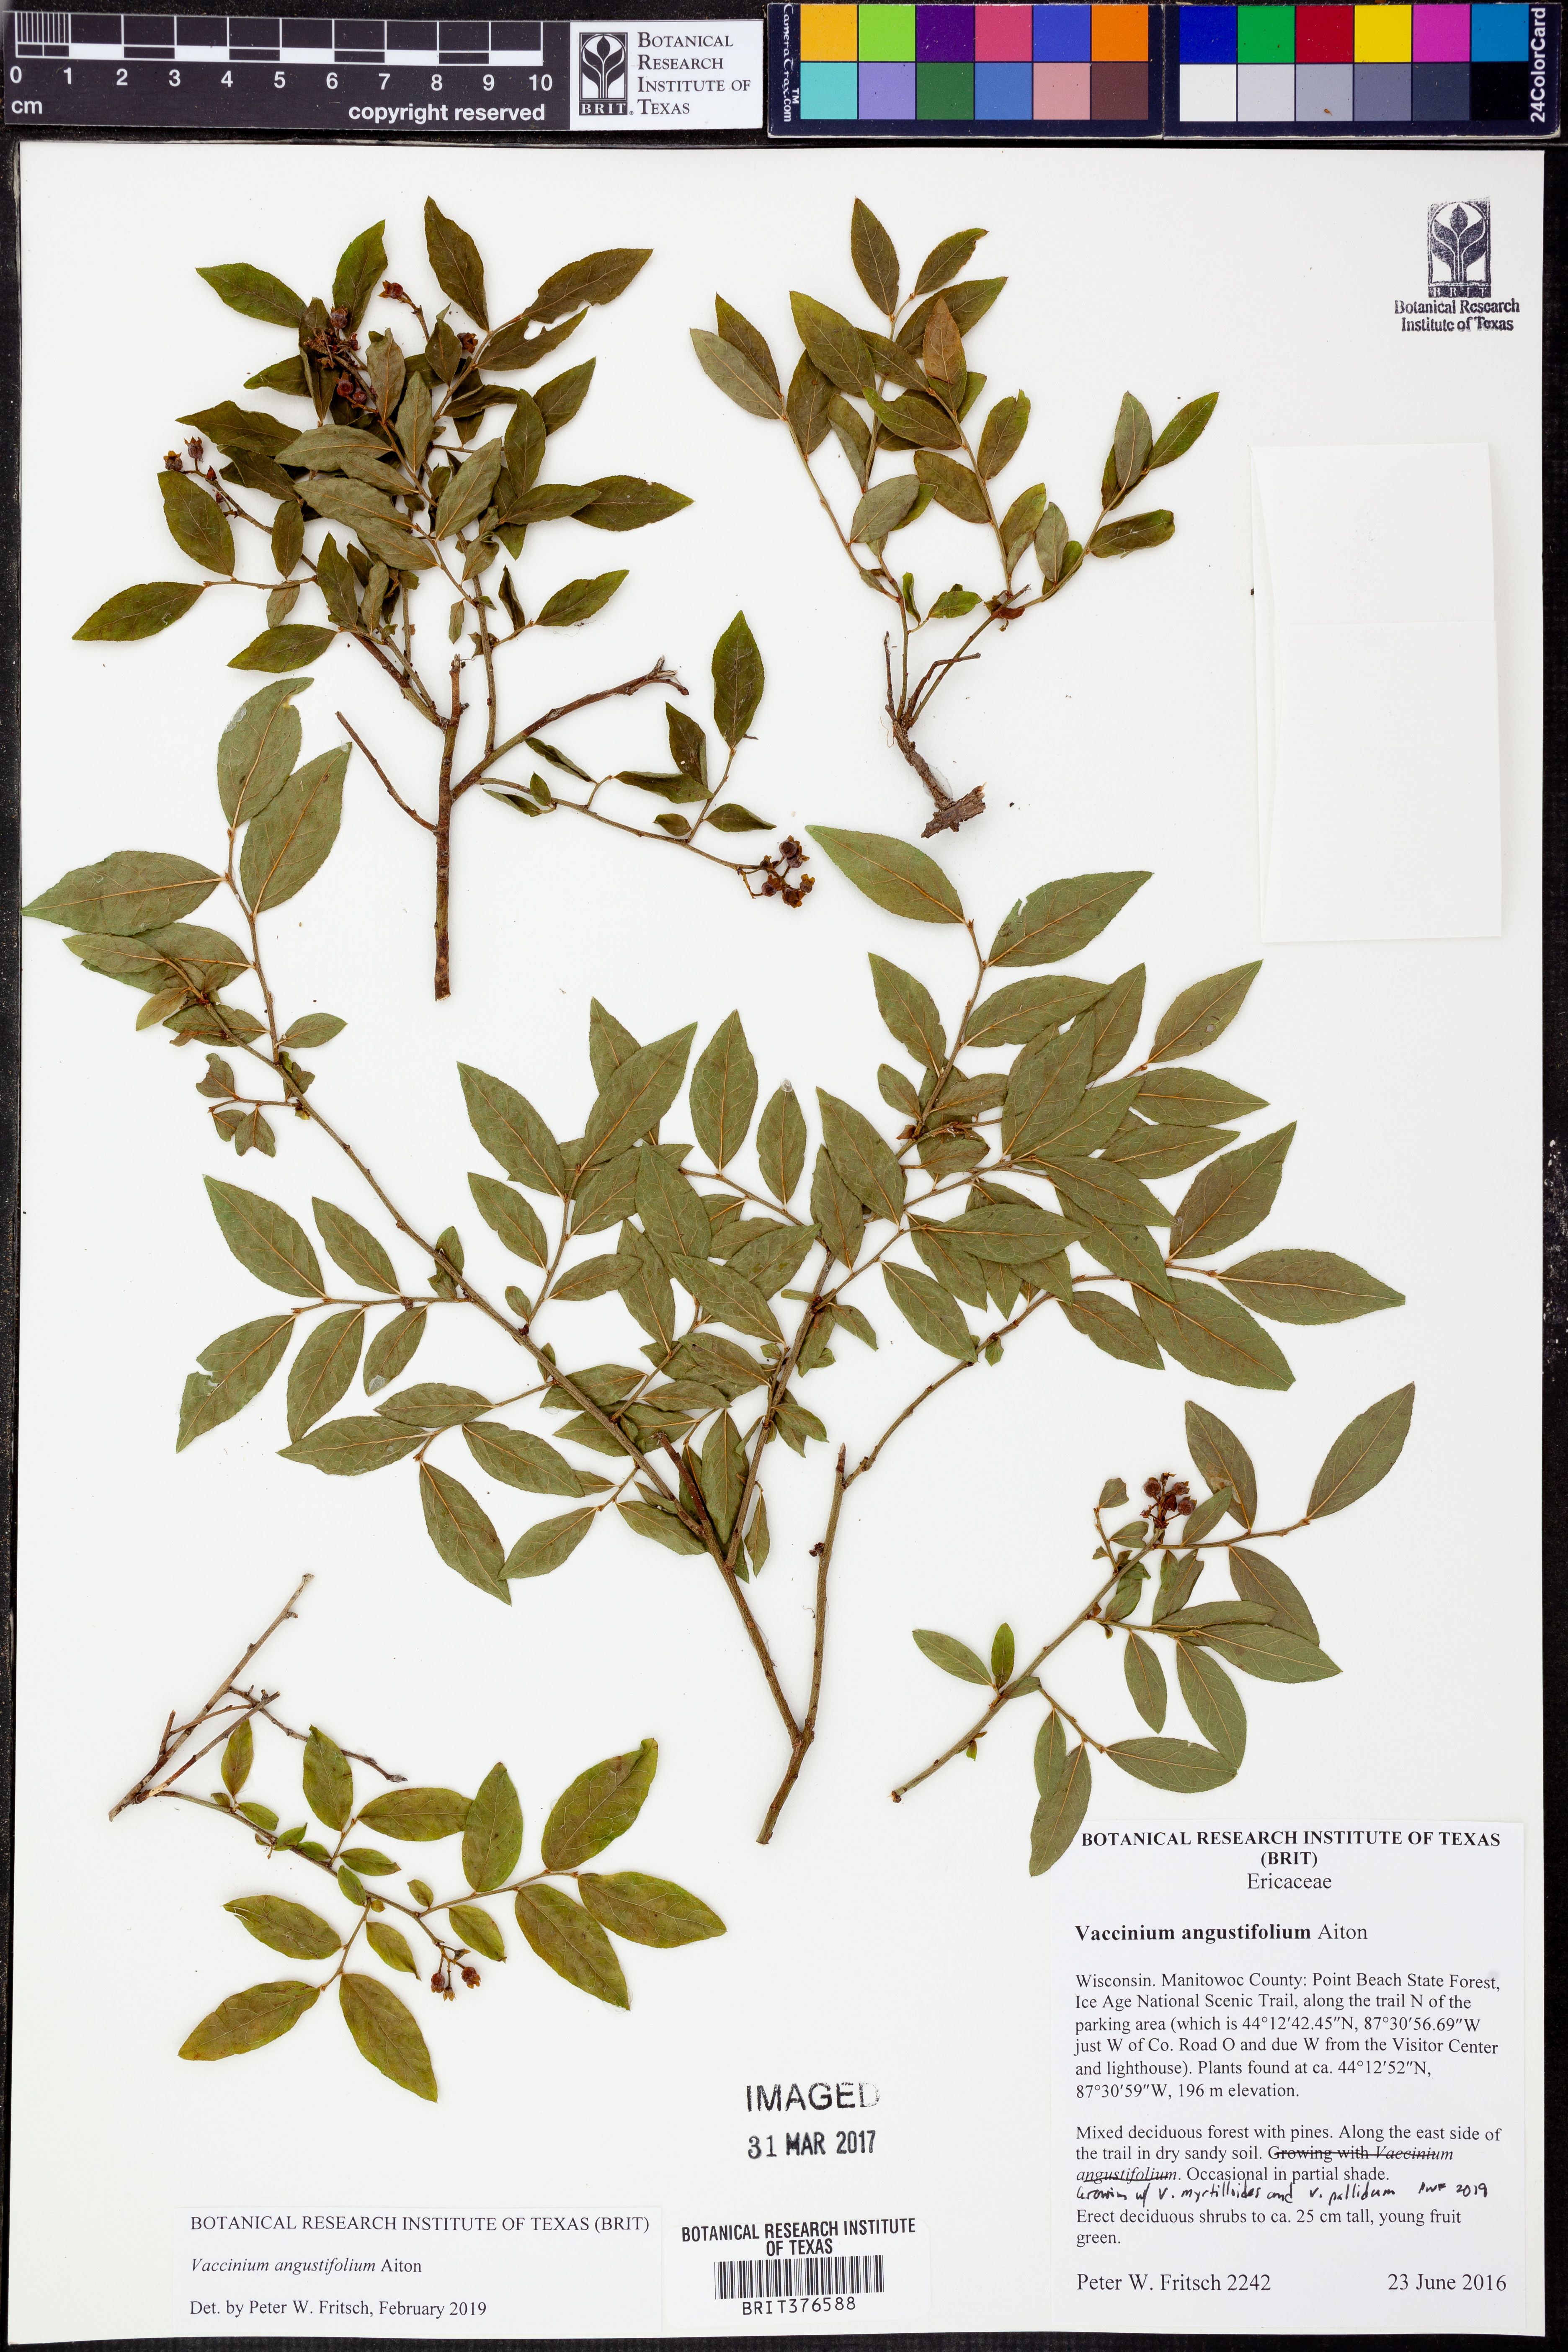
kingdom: Plantae
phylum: Tracheophyta
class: Magnoliopsida
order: Ericales
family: Ericaceae
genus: Vaccinium
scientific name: Vaccinium angustifolium
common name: Early lowbush blueberry
